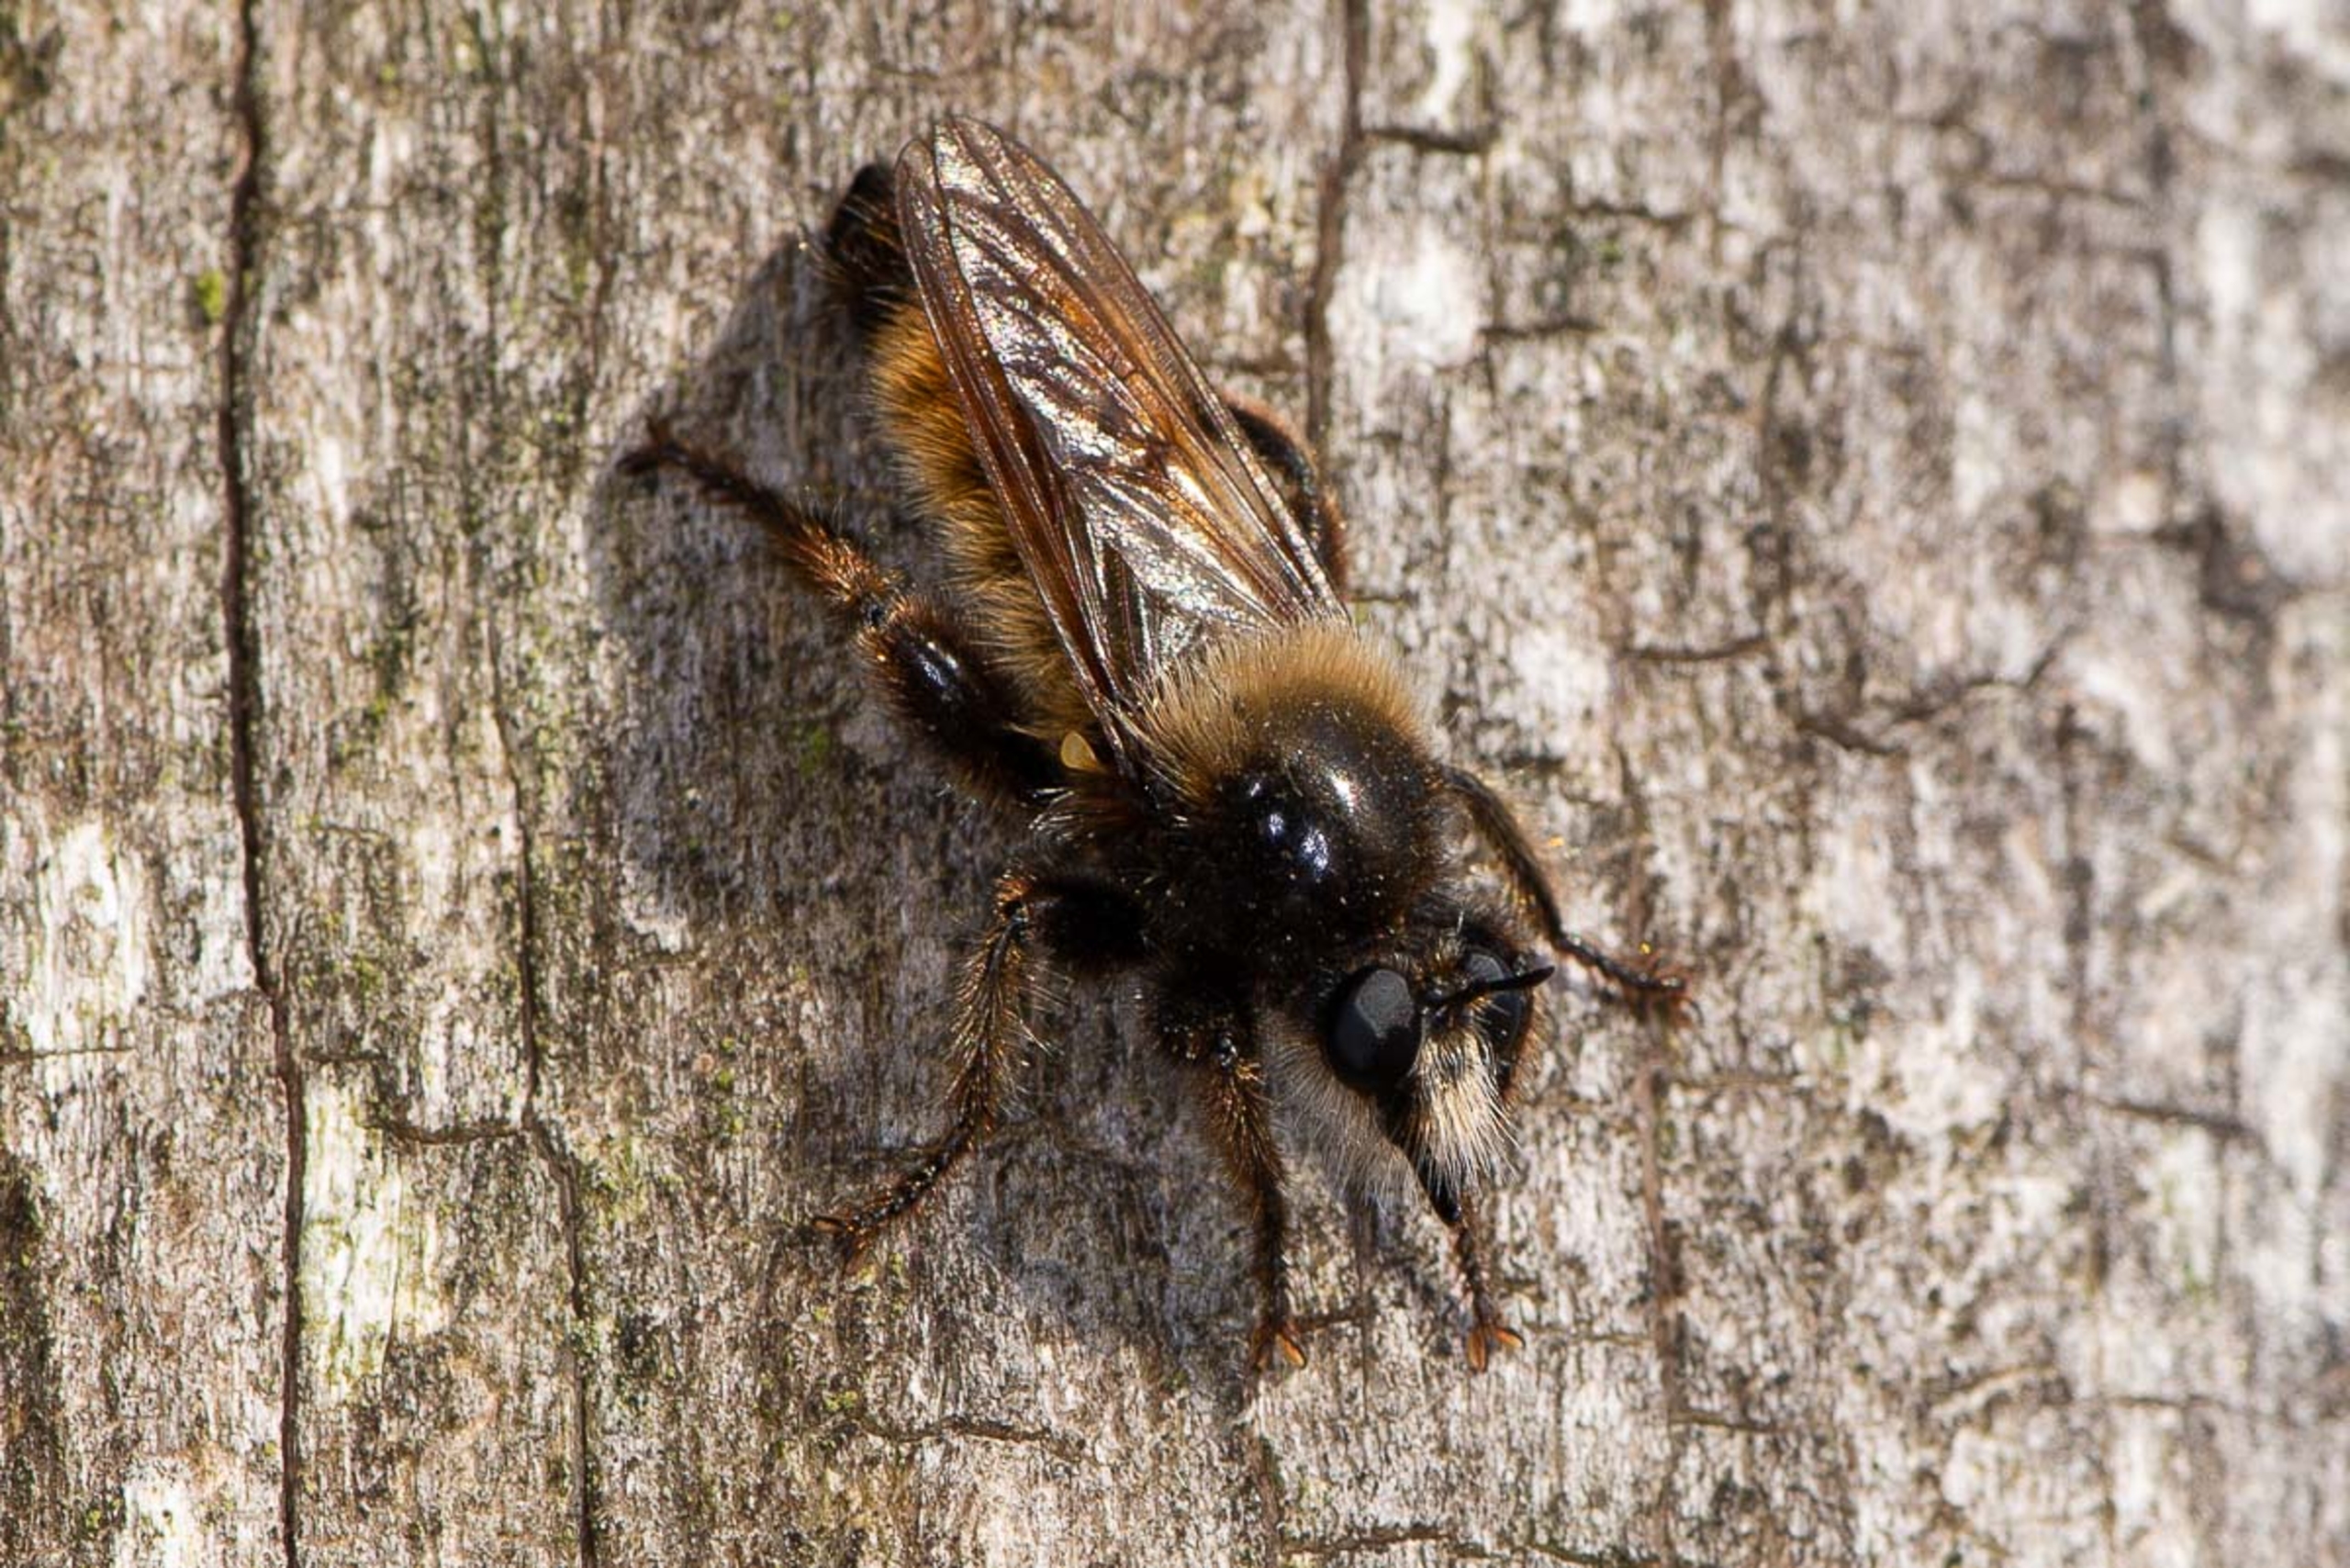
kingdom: Animalia
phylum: Arthropoda
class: Insecta
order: Diptera
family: Asilidae
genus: Laphria
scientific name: Laphria flava
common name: Gul vedrovflue
